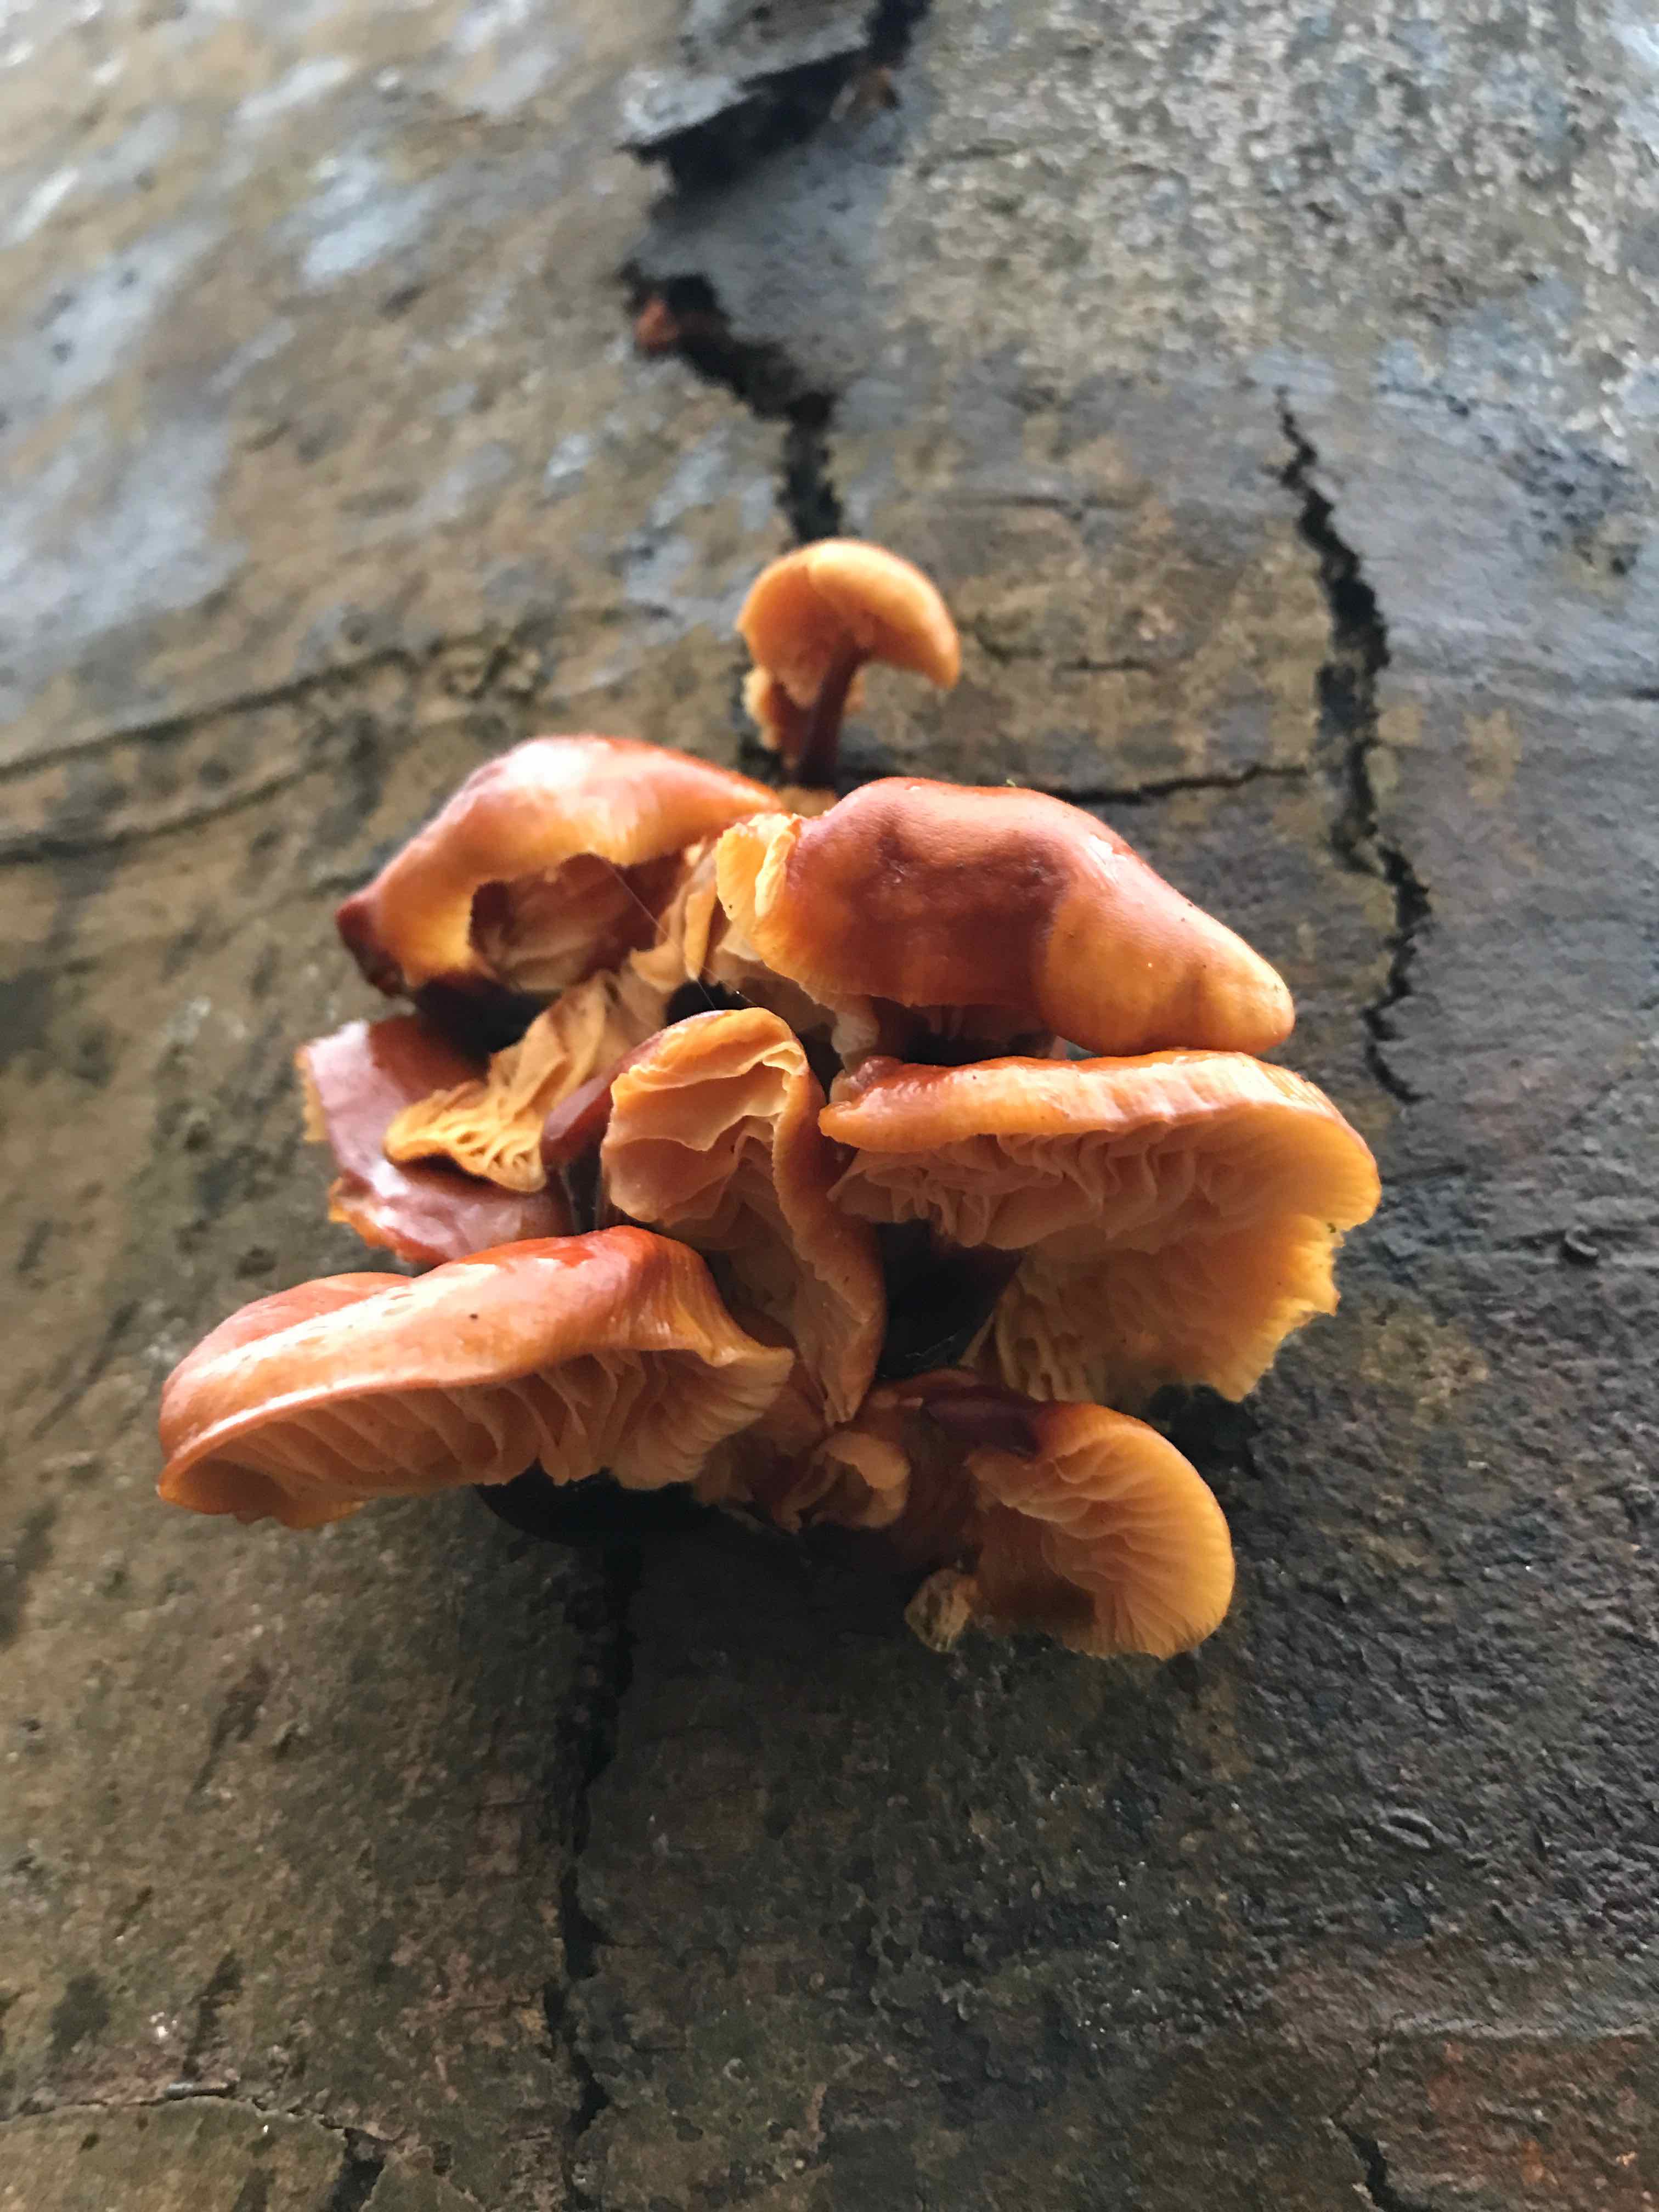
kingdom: Fungi
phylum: Basidiomycota
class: Agaricomycetes
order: Agaricales
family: Physalacriaceae
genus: Flammulina
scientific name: Flammulina velutipes
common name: gul fløjlsfod
